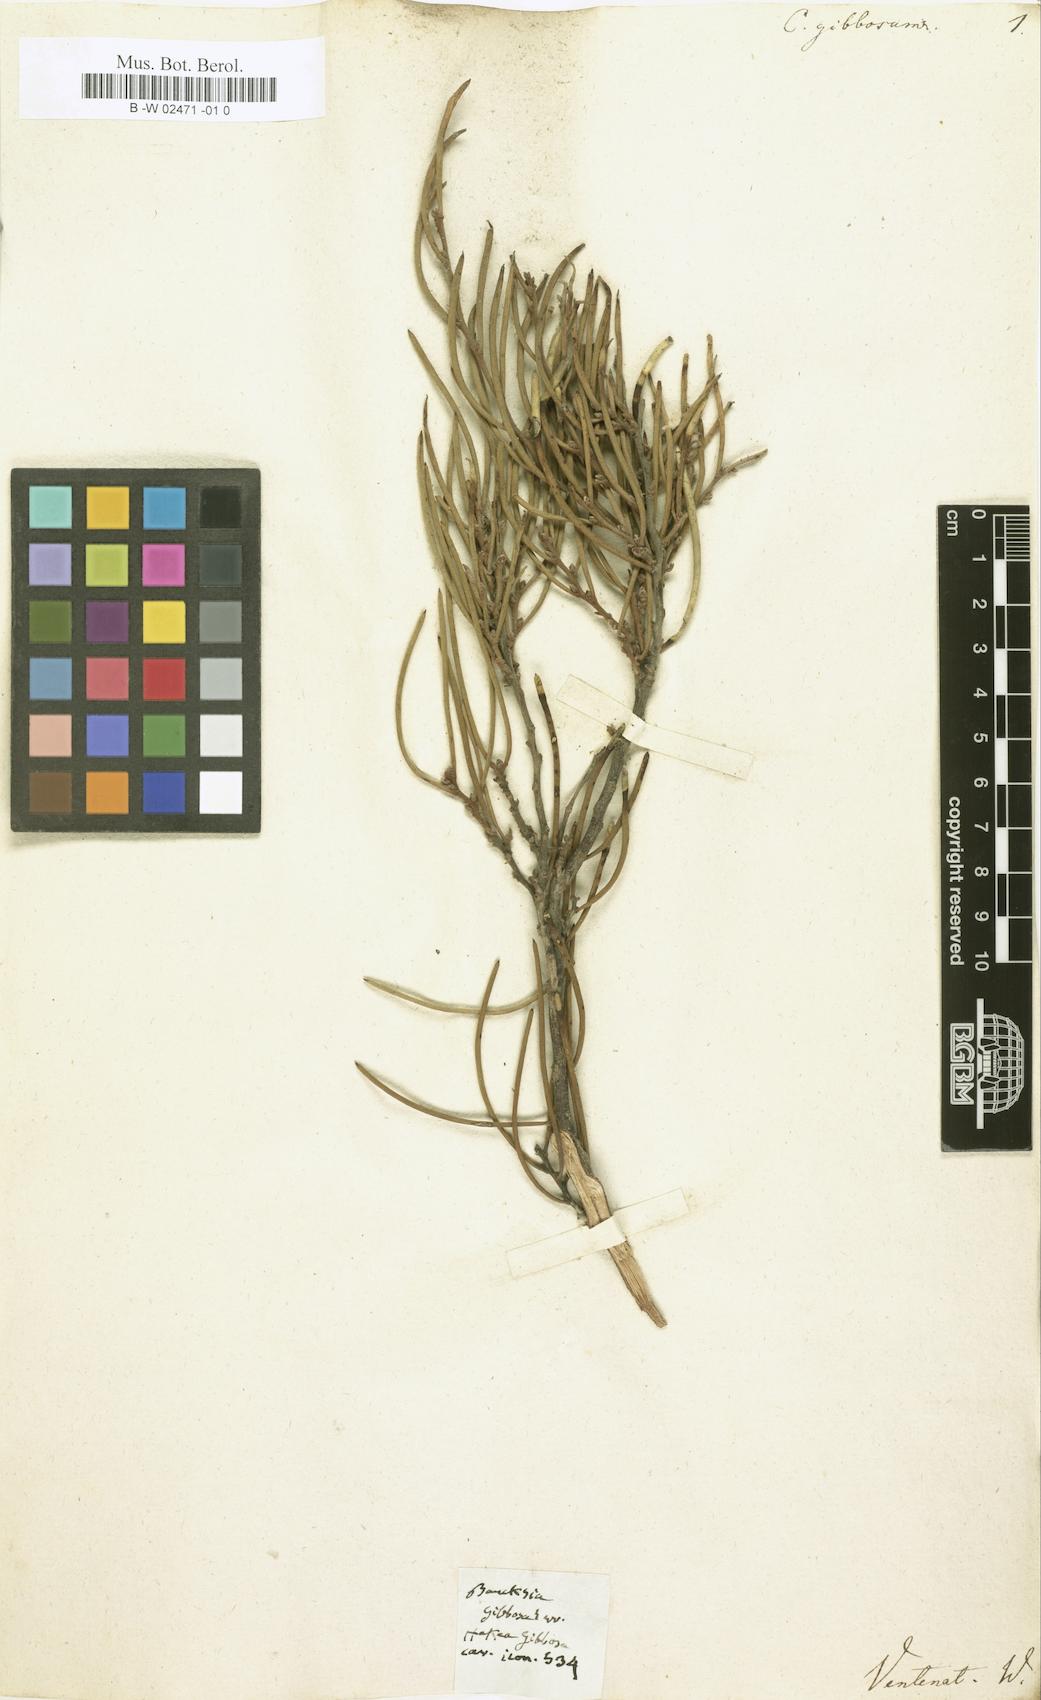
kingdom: Plantae
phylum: Tracheophyta
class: Magnoliopsida
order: Proteales
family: Proteaceae
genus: Hakea
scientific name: Hakea gibbosa
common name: Rock hakea
